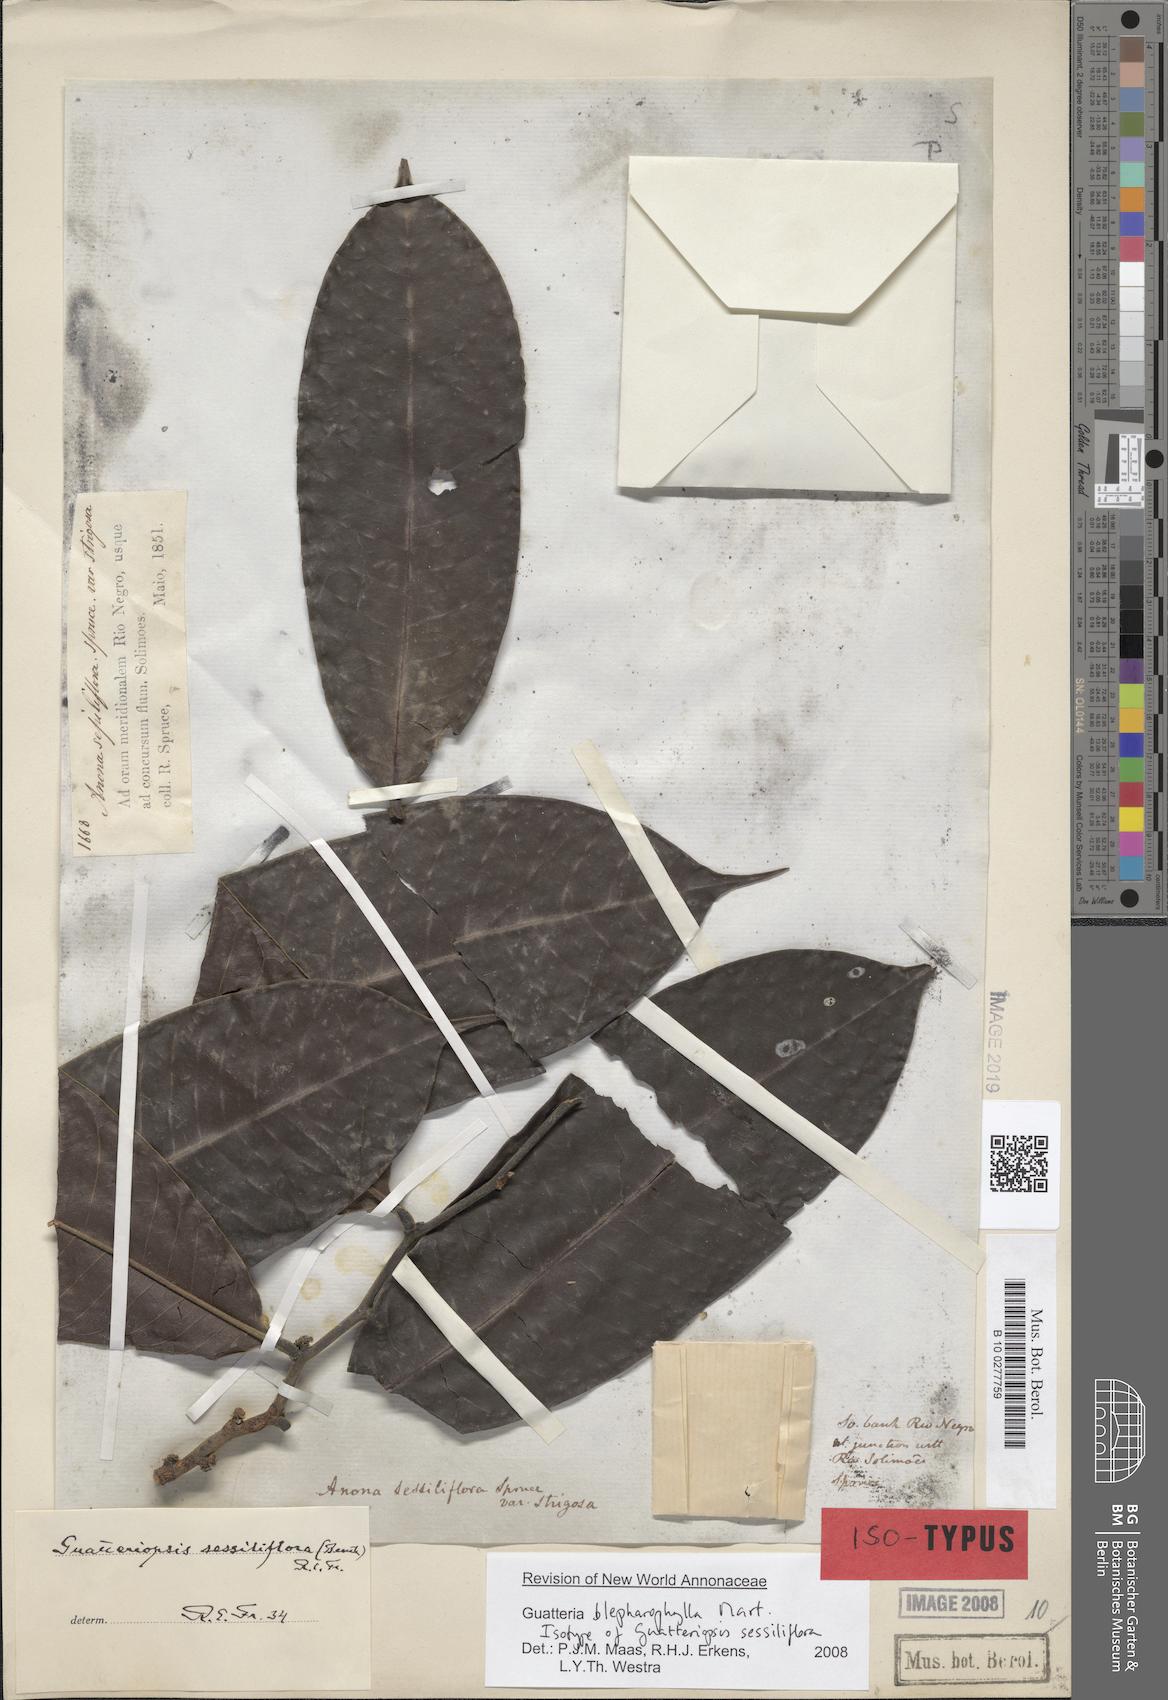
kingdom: Plantae
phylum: Tracheophyta
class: Magnoliopsida
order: Magnoliales
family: Annonaceae
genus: Guatteria
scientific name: Guatteria blepharophylla
